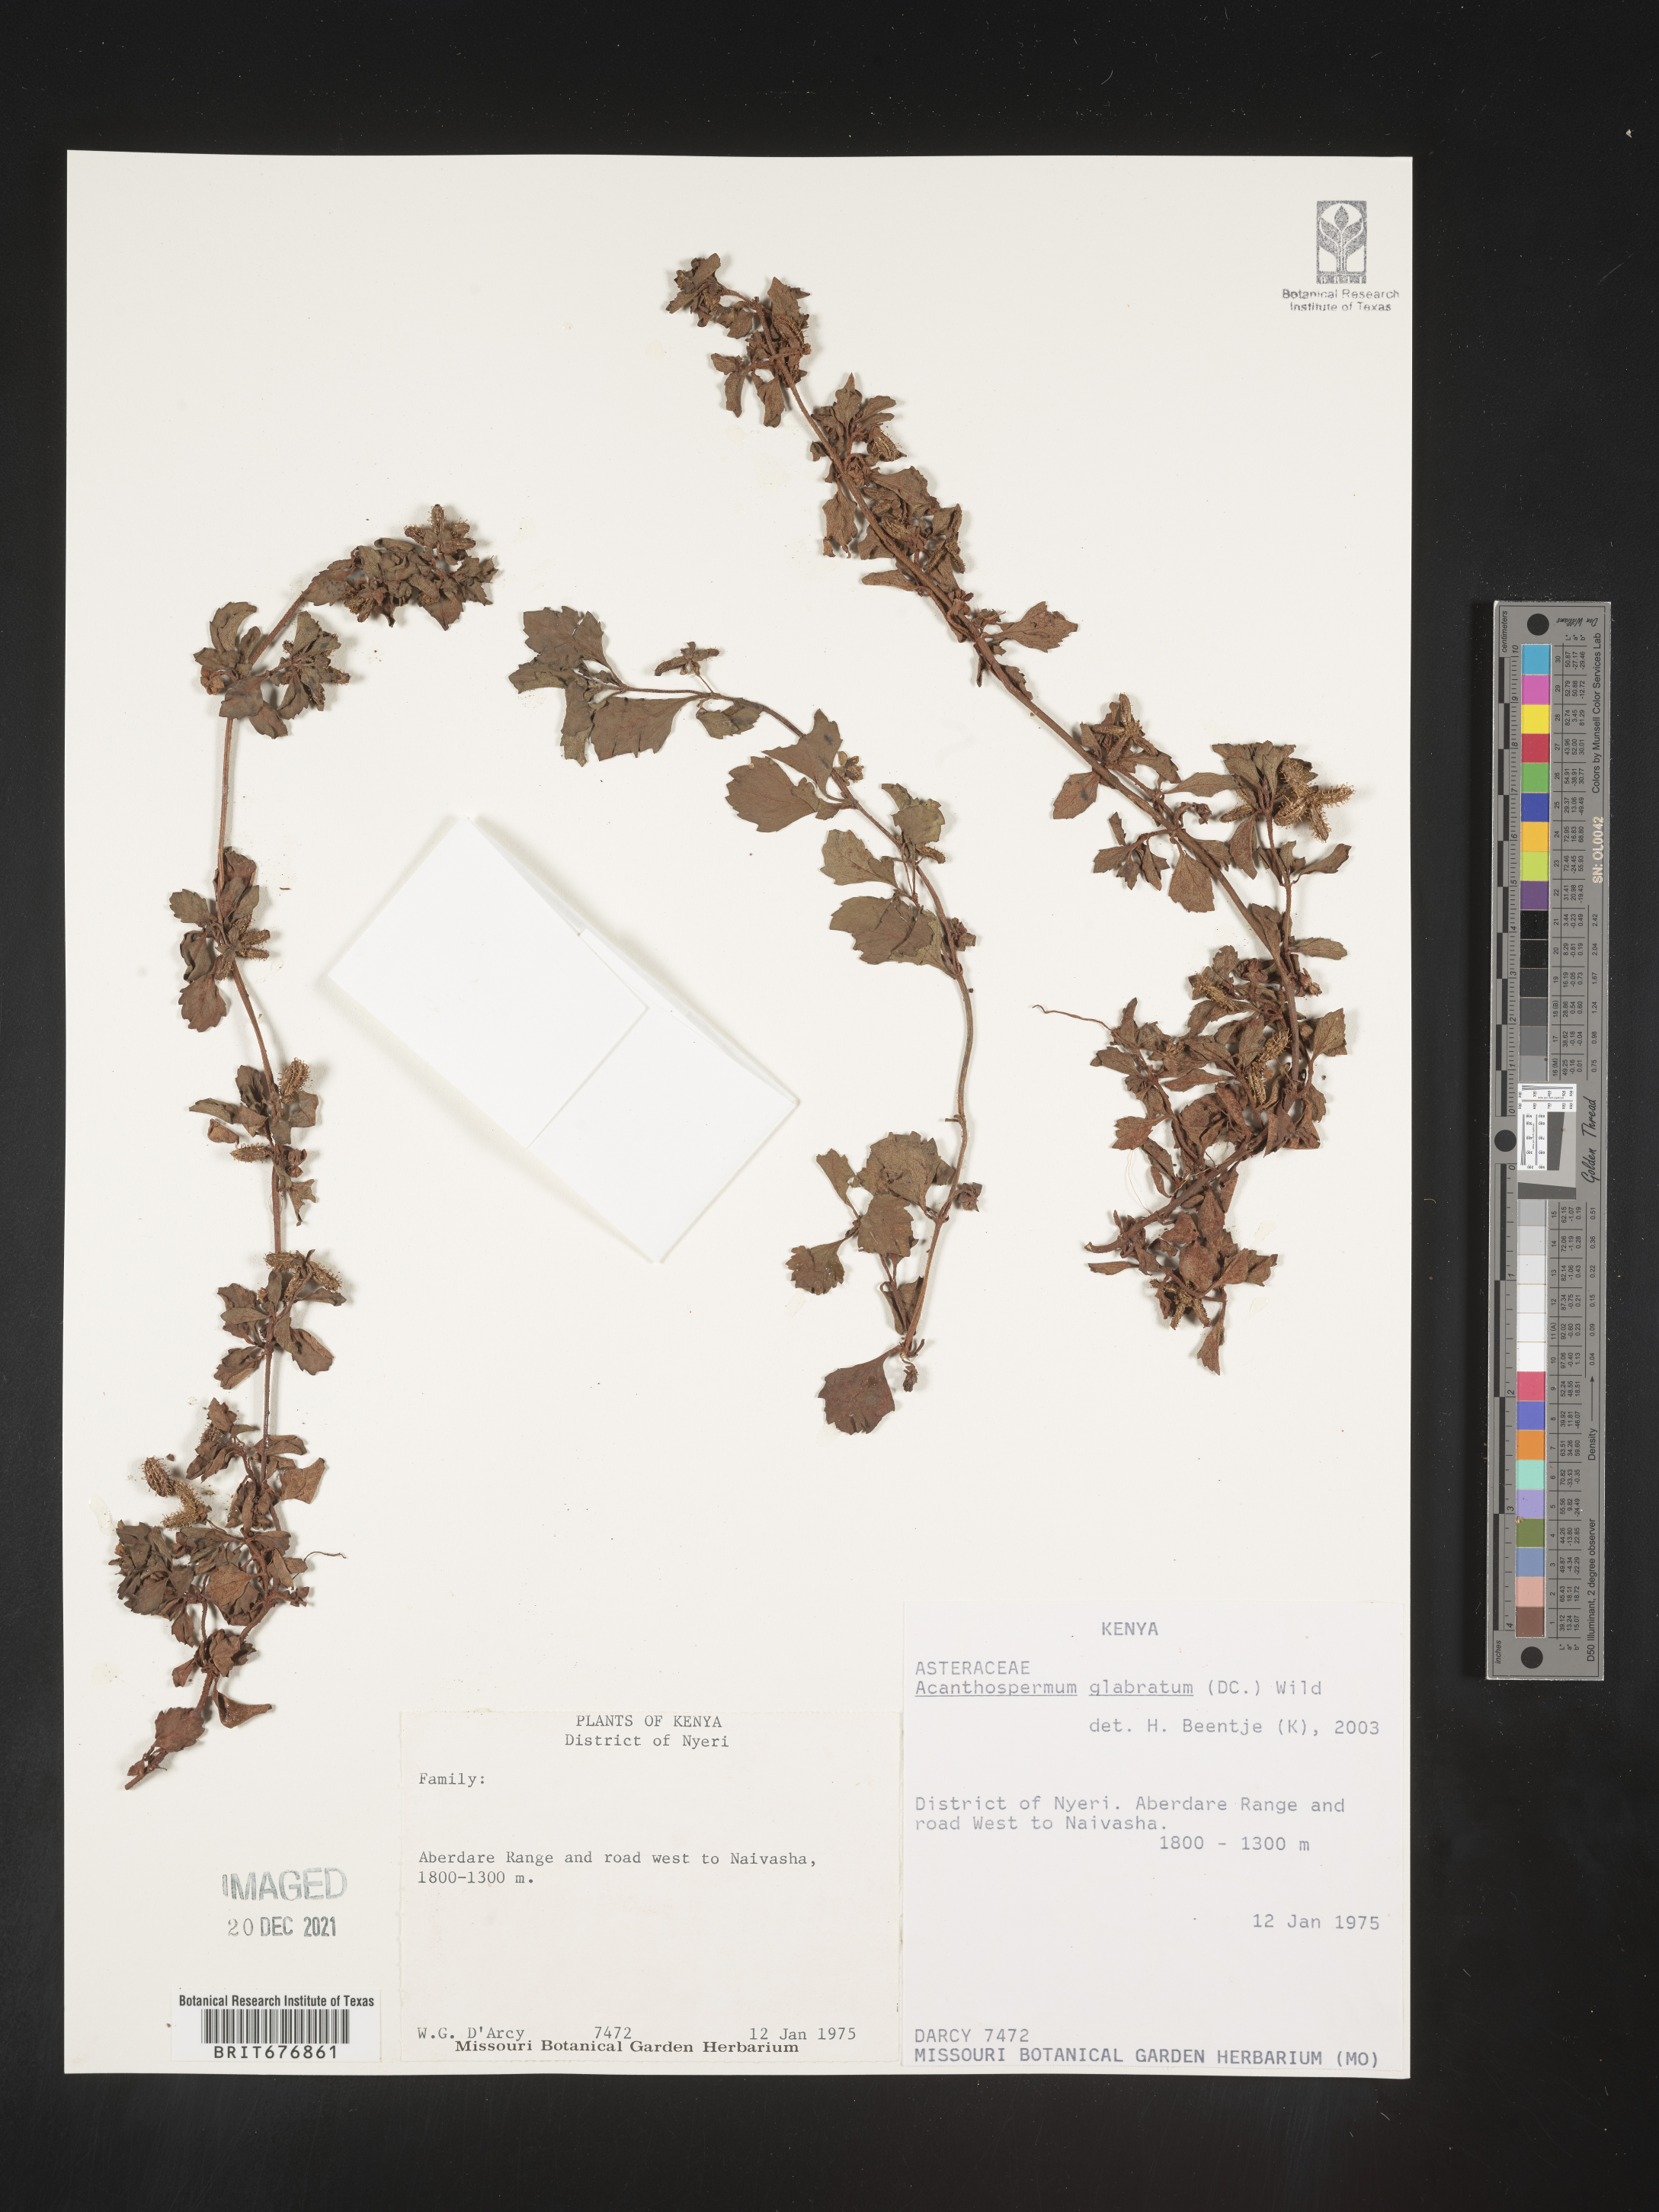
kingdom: Plantae
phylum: Tracheophyta
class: Magnoliopsida
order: Asterales
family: Asteraceae
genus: Acanthospermum
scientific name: Acanthospermum
